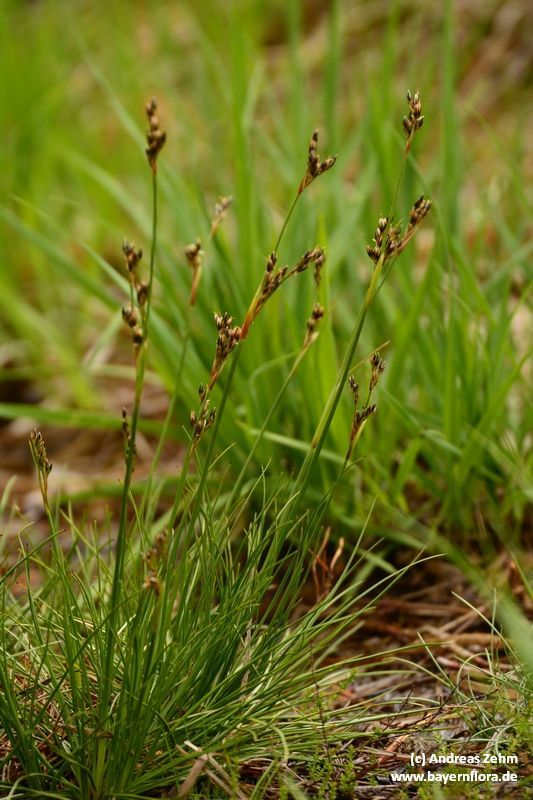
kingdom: Plantae
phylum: Tracheophyta
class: Liliopsida
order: Poales
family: Juncaceae
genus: Juncus
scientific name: Juncus squarrosus
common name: Heath rush
